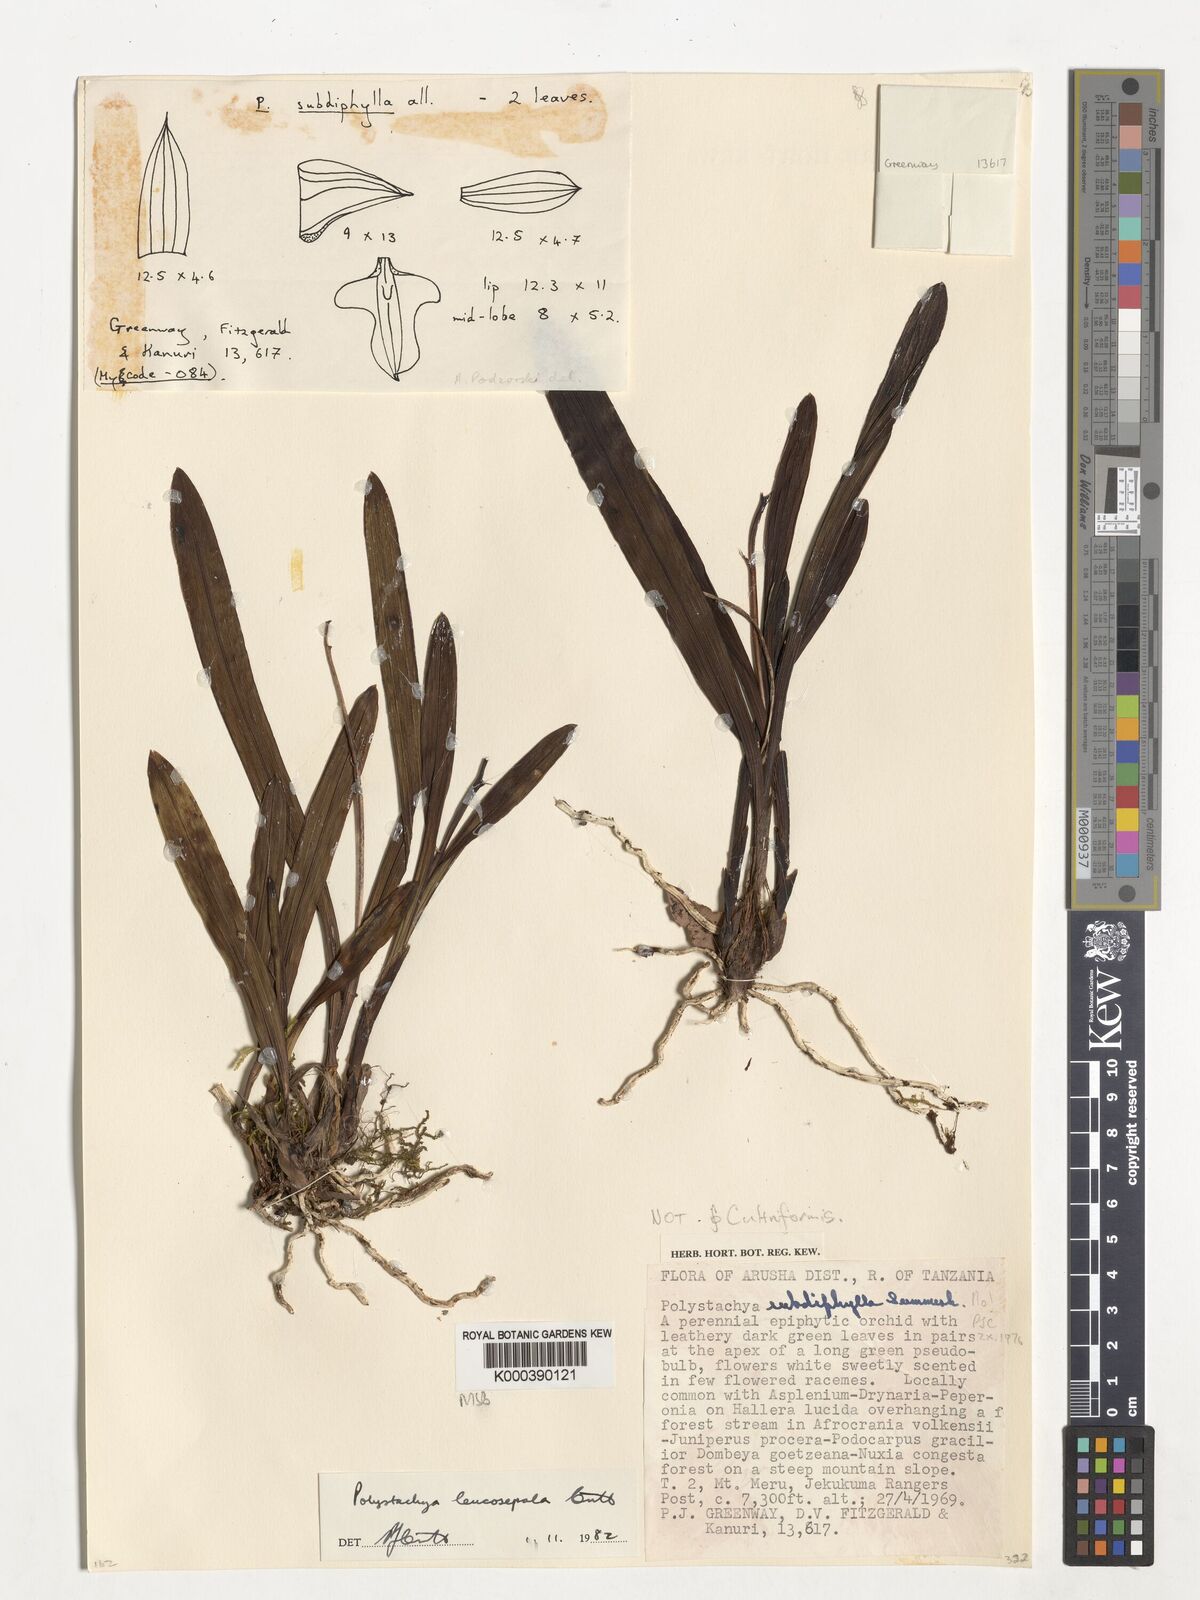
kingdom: Plantae
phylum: Tracheophyta
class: Liliopsida
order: Asparagales
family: Orchidaceae
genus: Polystachya
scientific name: Polystachya leucosepala
